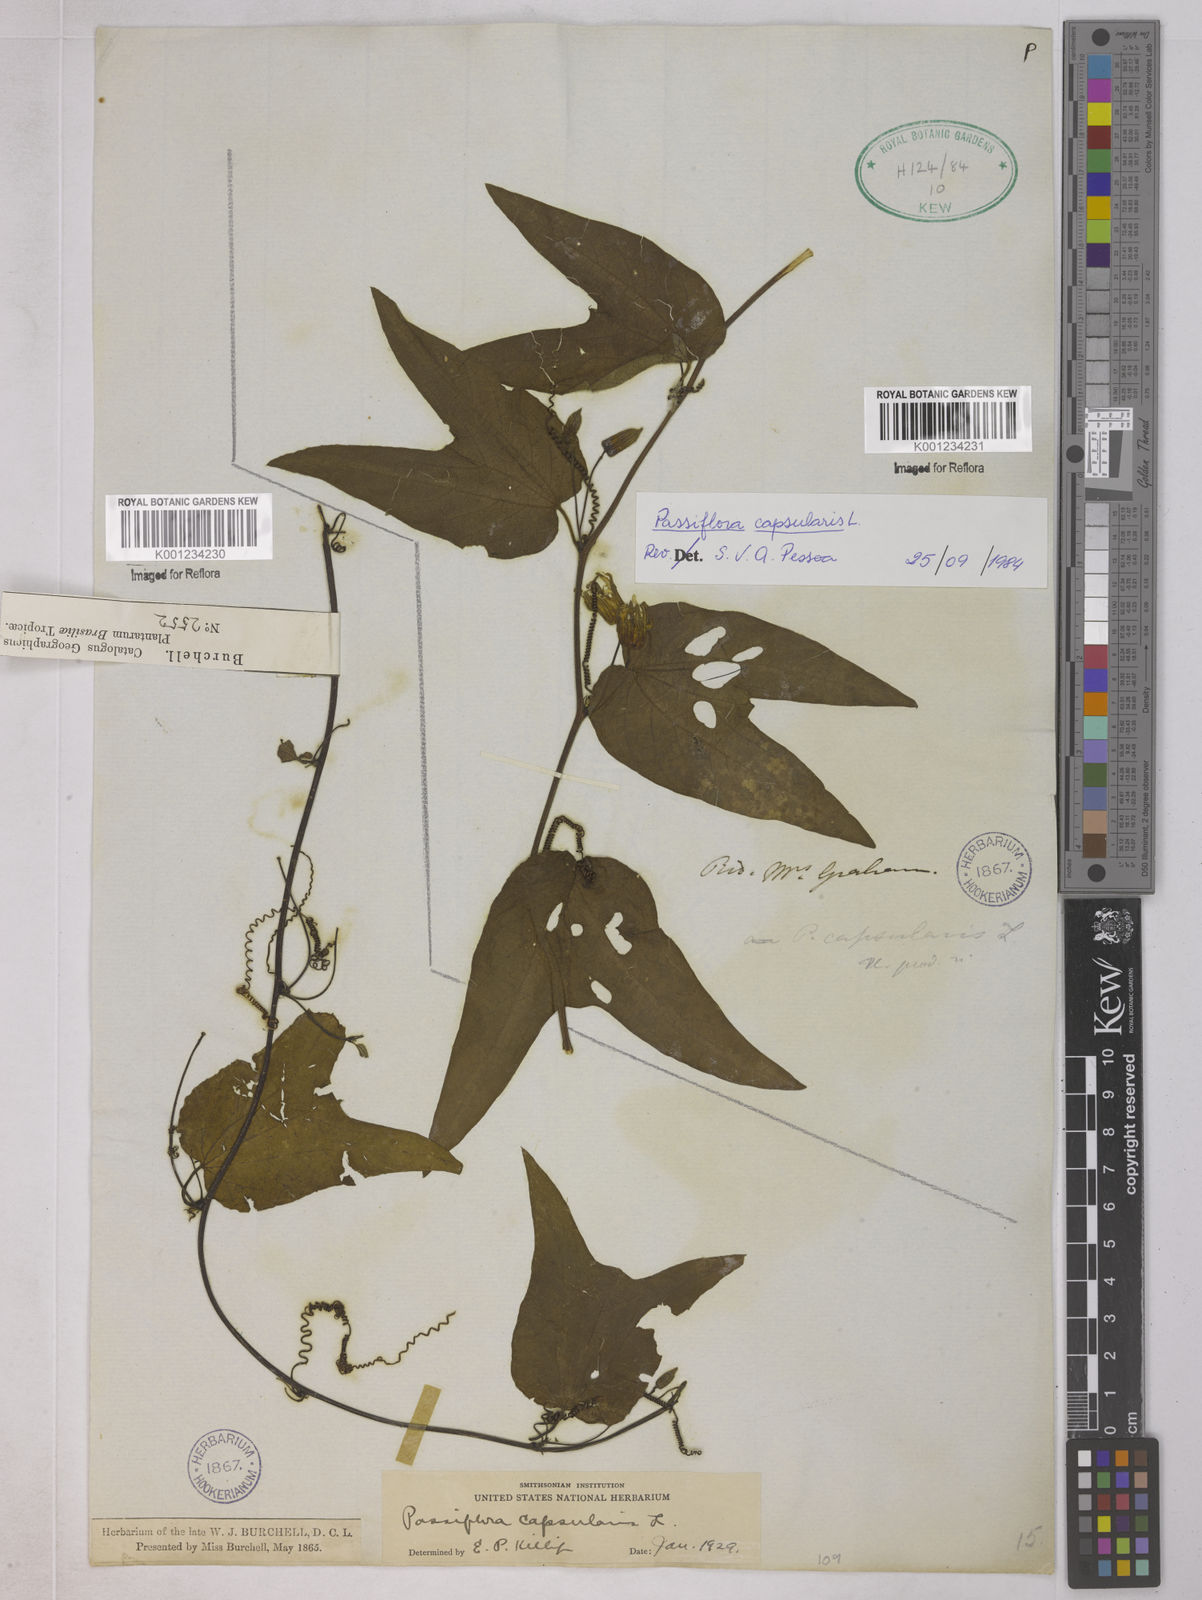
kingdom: Plantae
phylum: Tracheophyta
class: Magnoliopsida
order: Malpighiales
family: Passifloraceae
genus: Passiflora
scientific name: Passiflora capsularis
